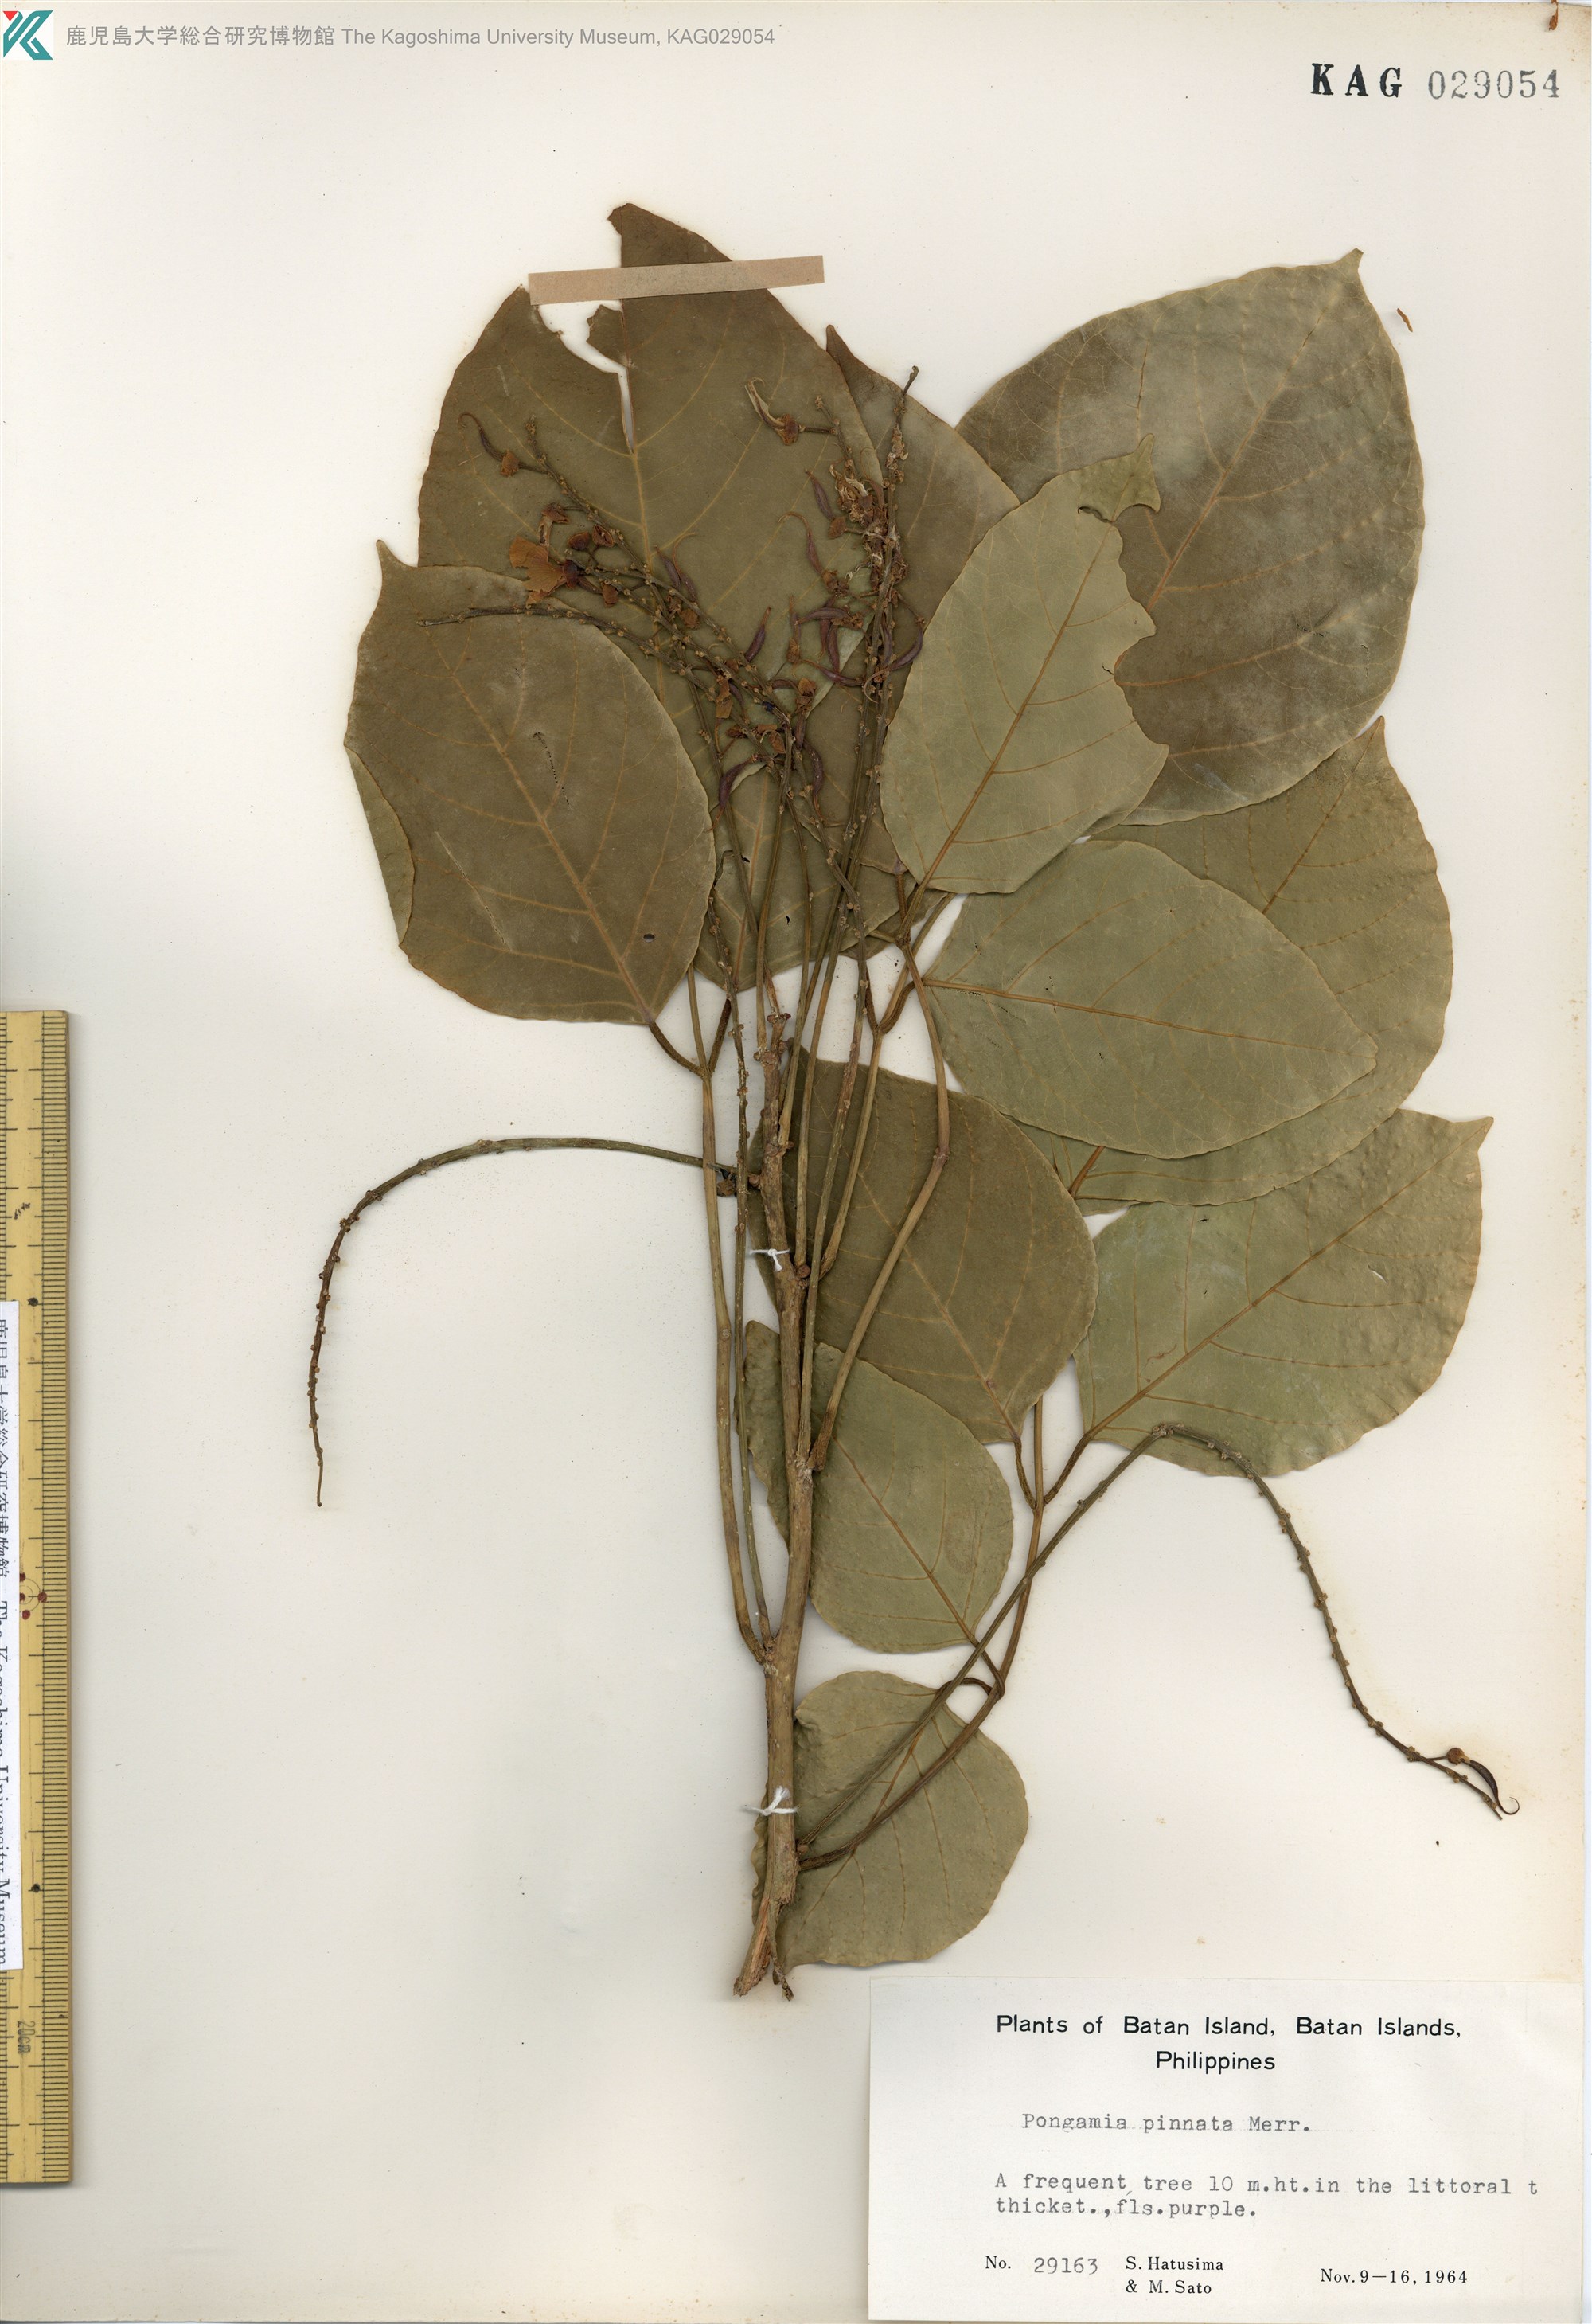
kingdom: Plantae
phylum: Tracheophyta
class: Magnoliopsida
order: Fabales
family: Fabaceae
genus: Pongamia
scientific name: Pongamia pinnata
